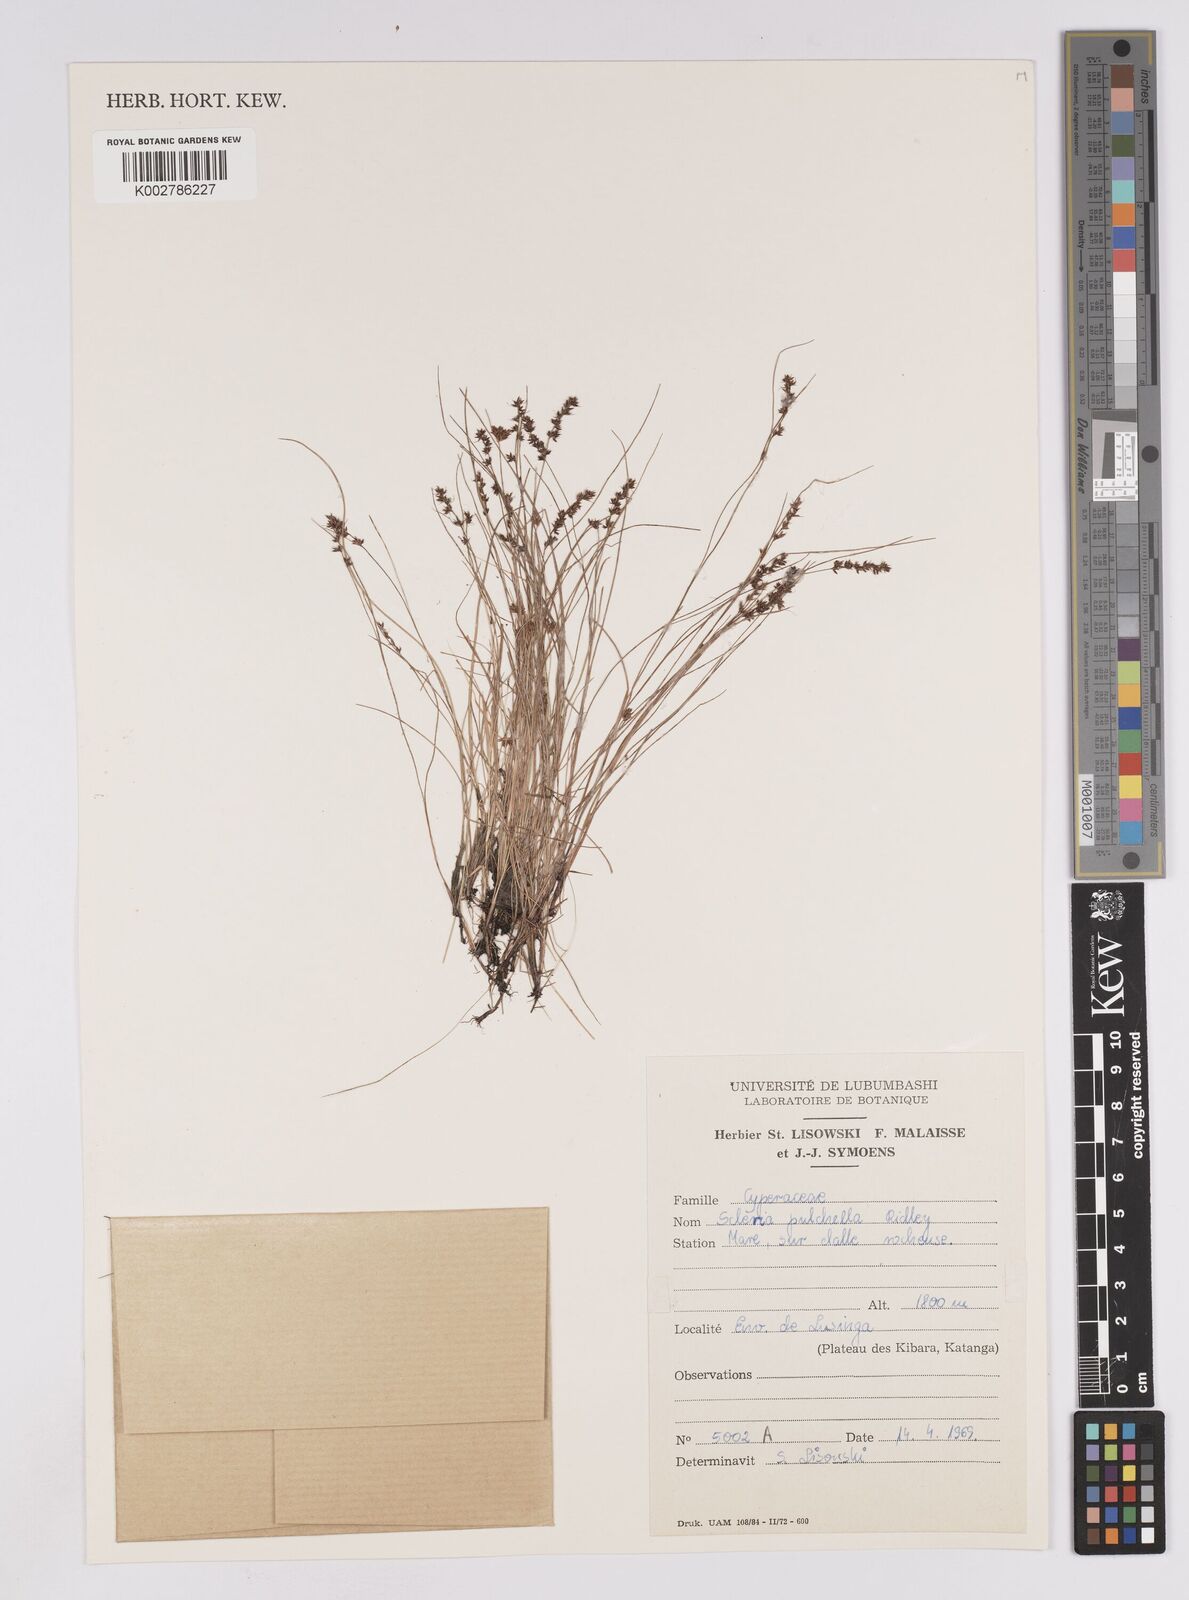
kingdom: Plantae
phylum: Tracheophyta
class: Liliopsida
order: Poales
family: Cyperaceae
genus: Scleria
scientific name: Scleria pulchella
